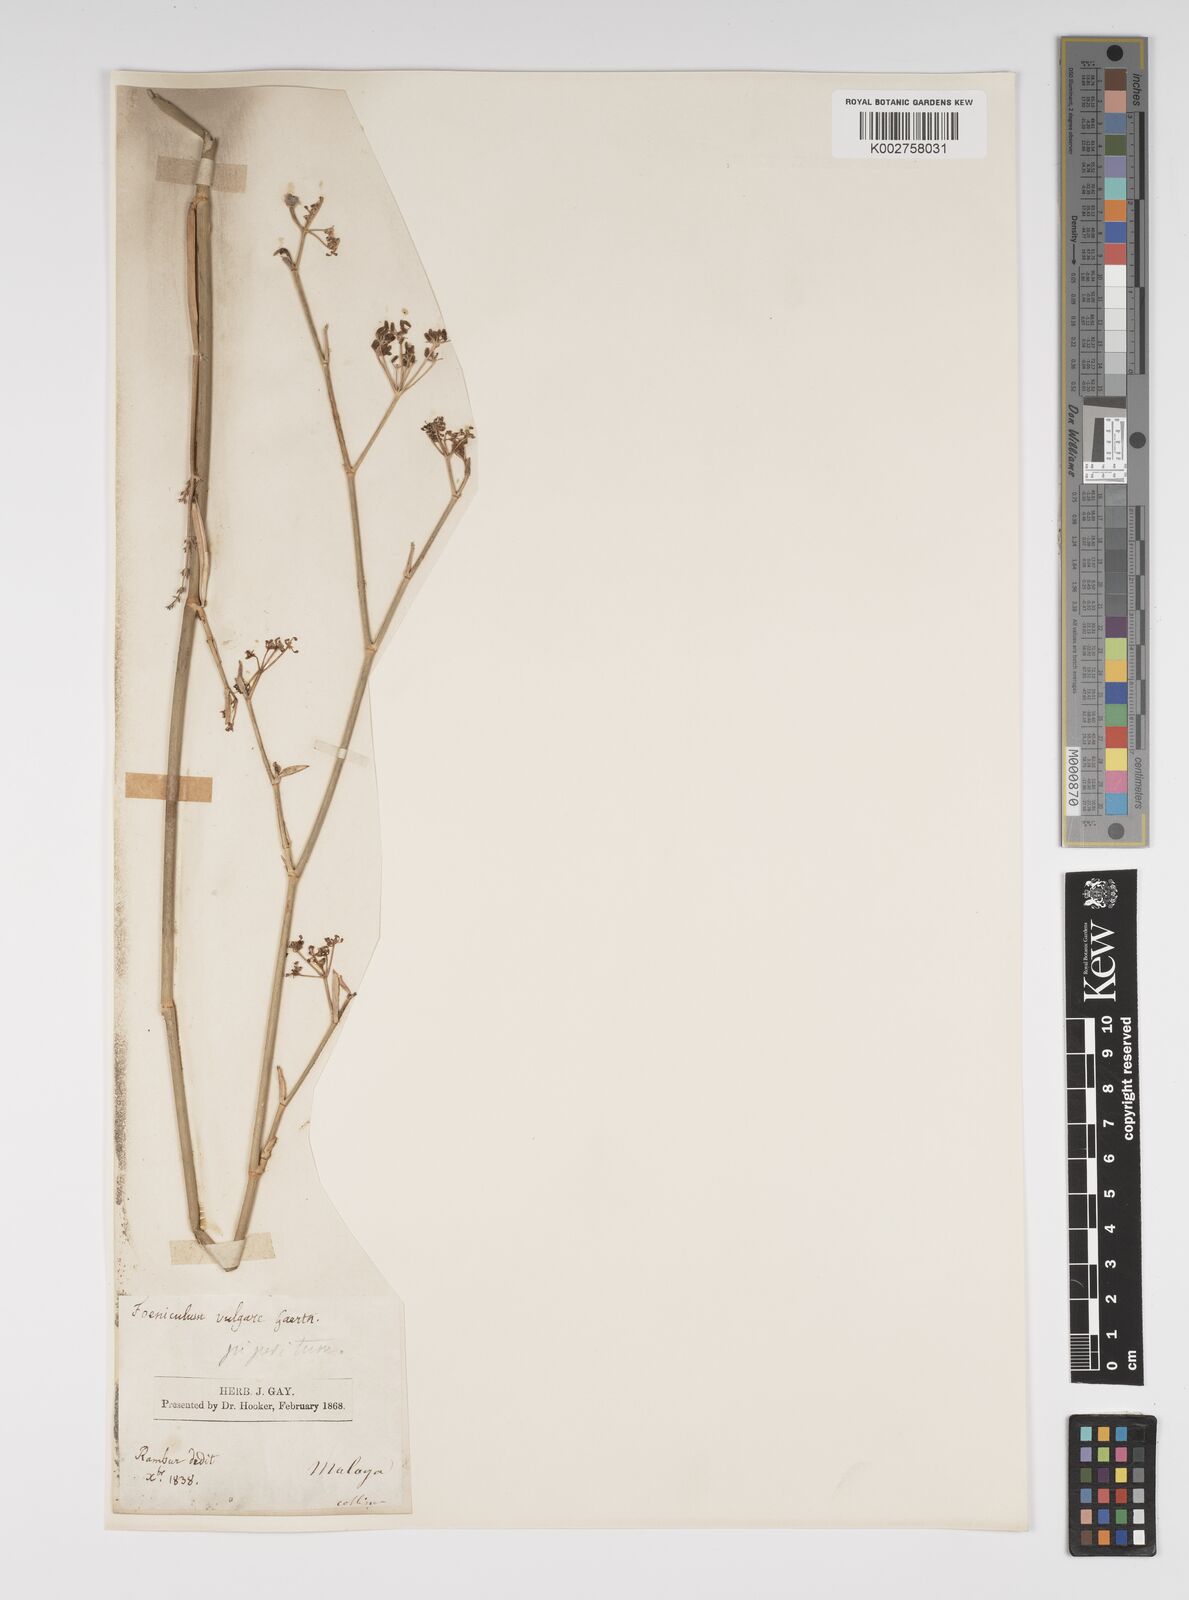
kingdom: Plantae
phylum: Tracheophyta
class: Magnoliopsida
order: Apiales
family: Apiaceae
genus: Foeniculum
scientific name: Foeniculum vulgare
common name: Fennel
